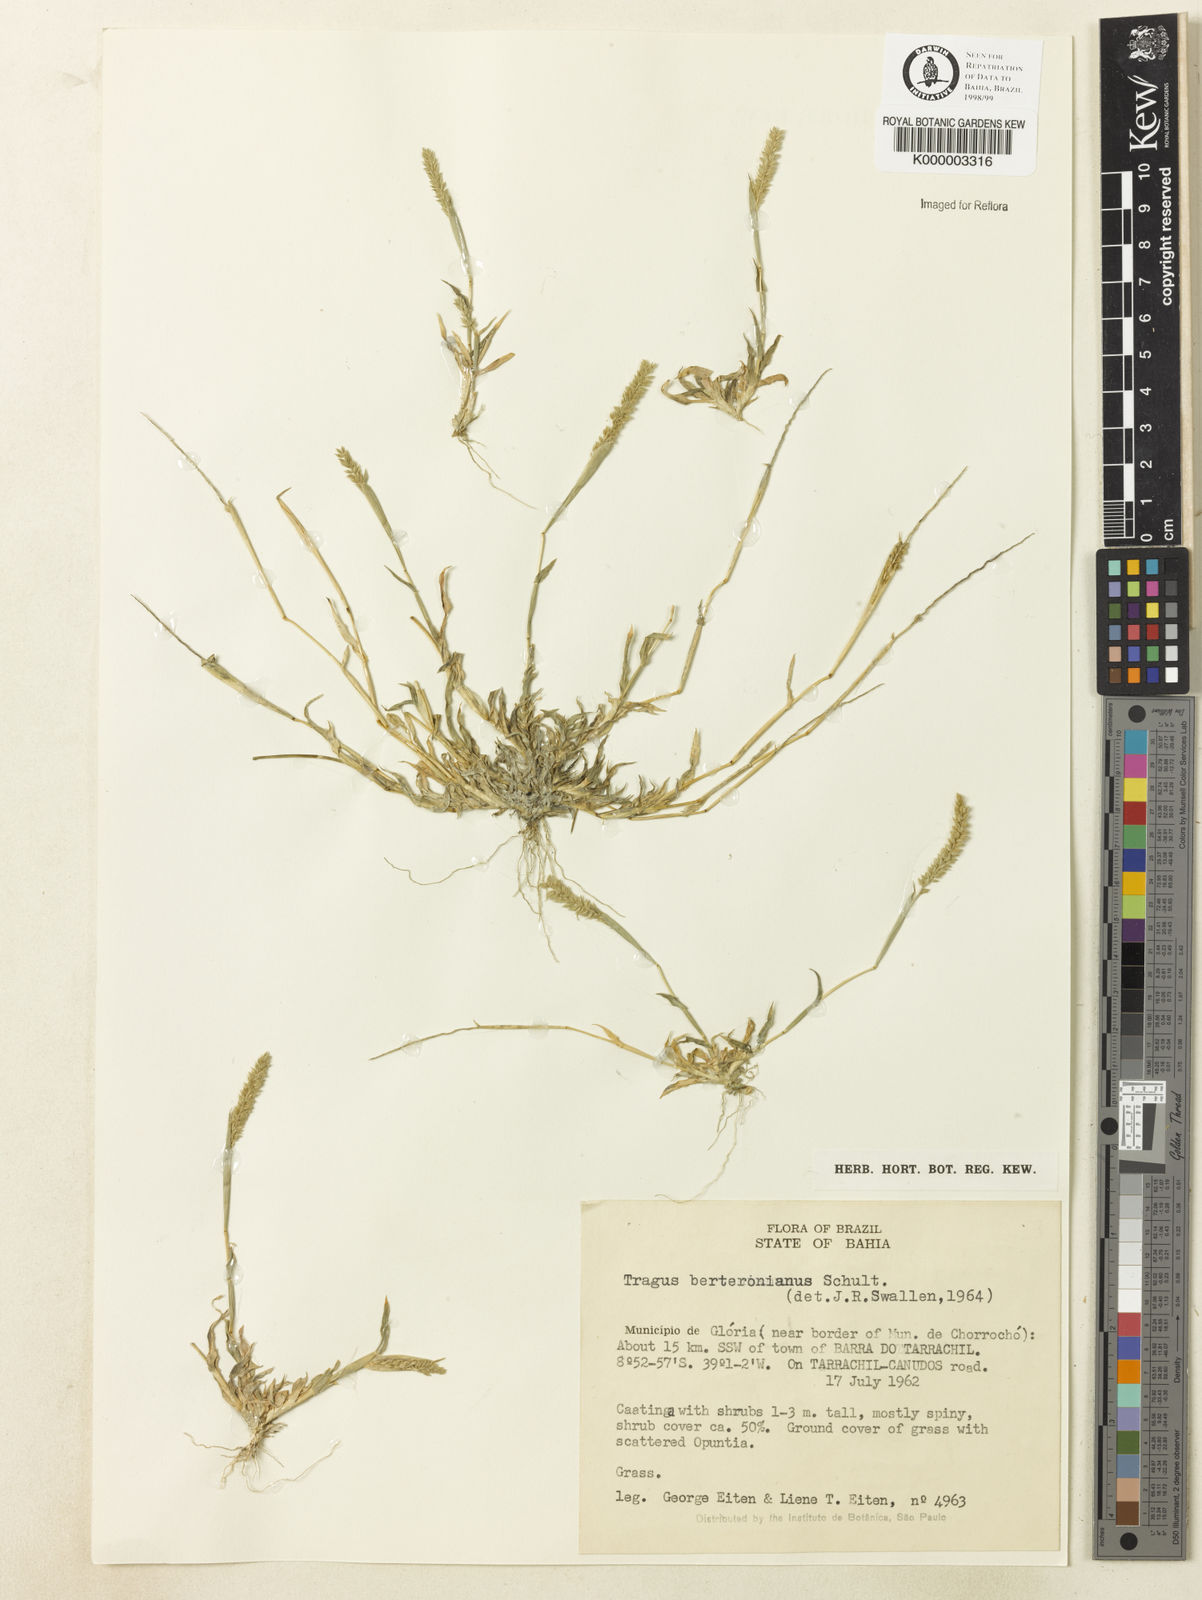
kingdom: Plantae
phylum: Tracheophyta
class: Liliopsida
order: Poales
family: Poaceae
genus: Tragus
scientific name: Tragus berteronianus
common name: African bur-grass
